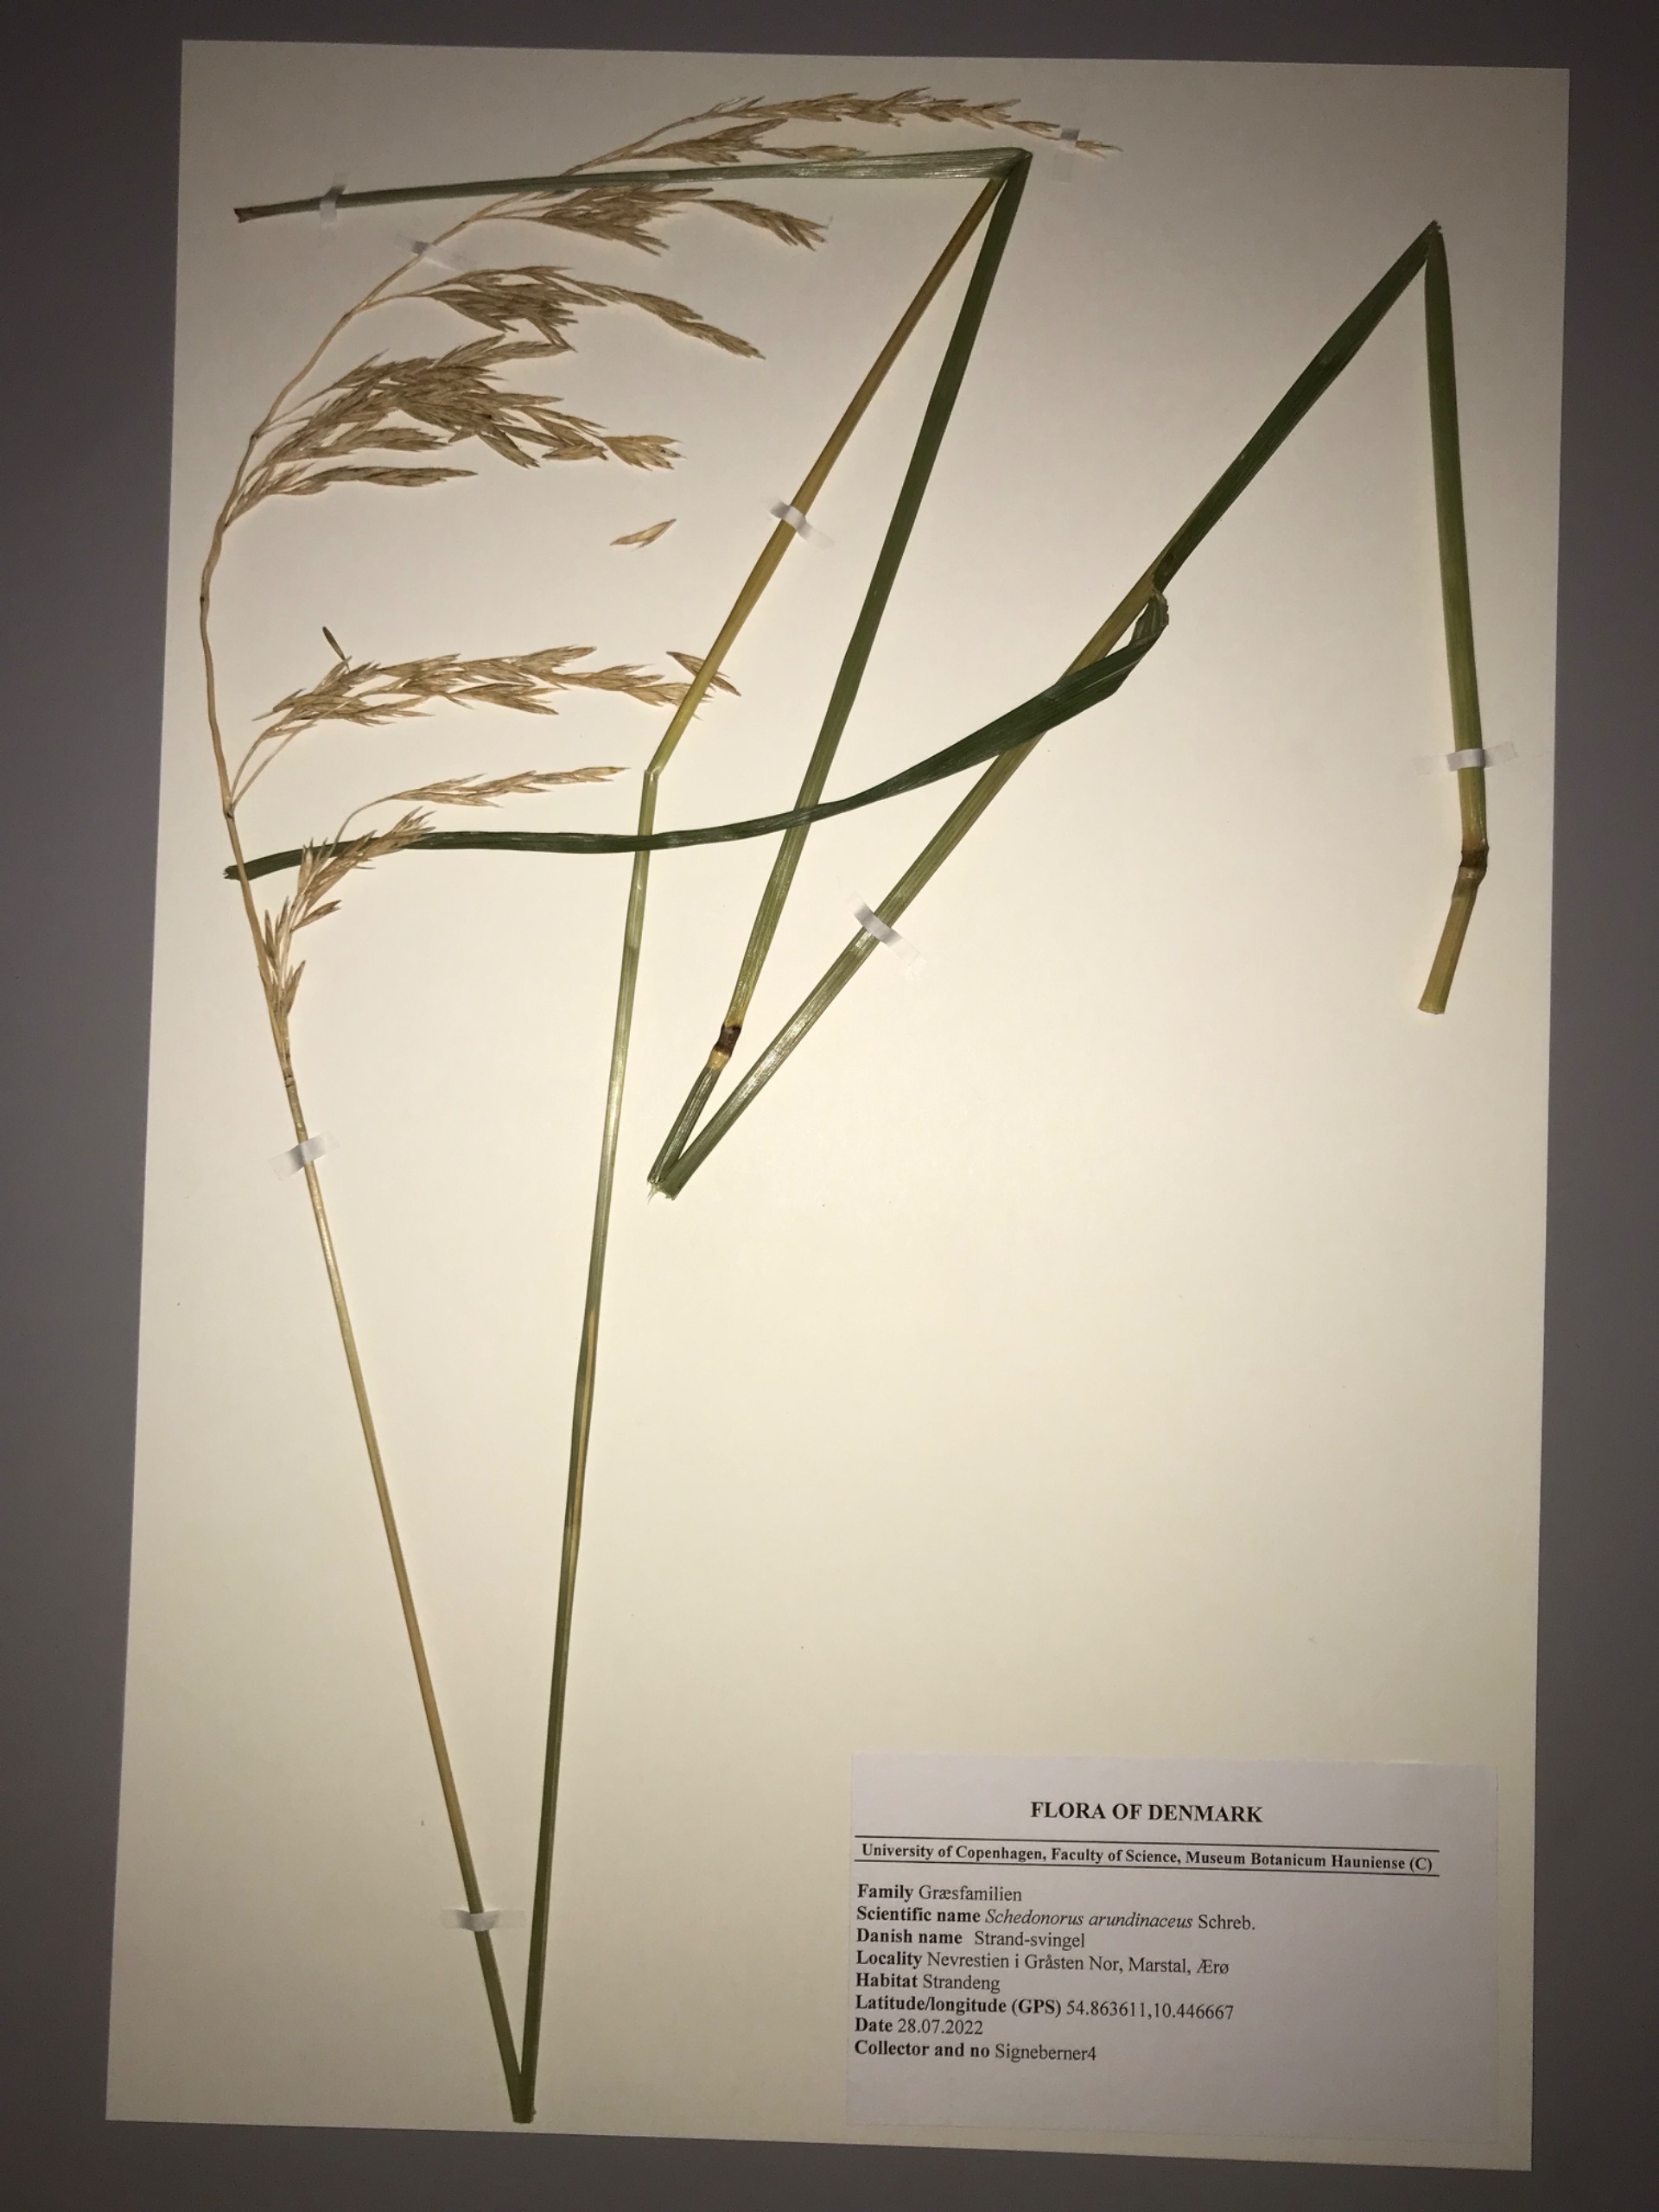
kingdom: Plantae
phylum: Tracheophyta
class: Liliopsida
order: Poales
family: Poaceae
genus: Lolium
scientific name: Lolium arundinaceum
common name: Strand-svingel
